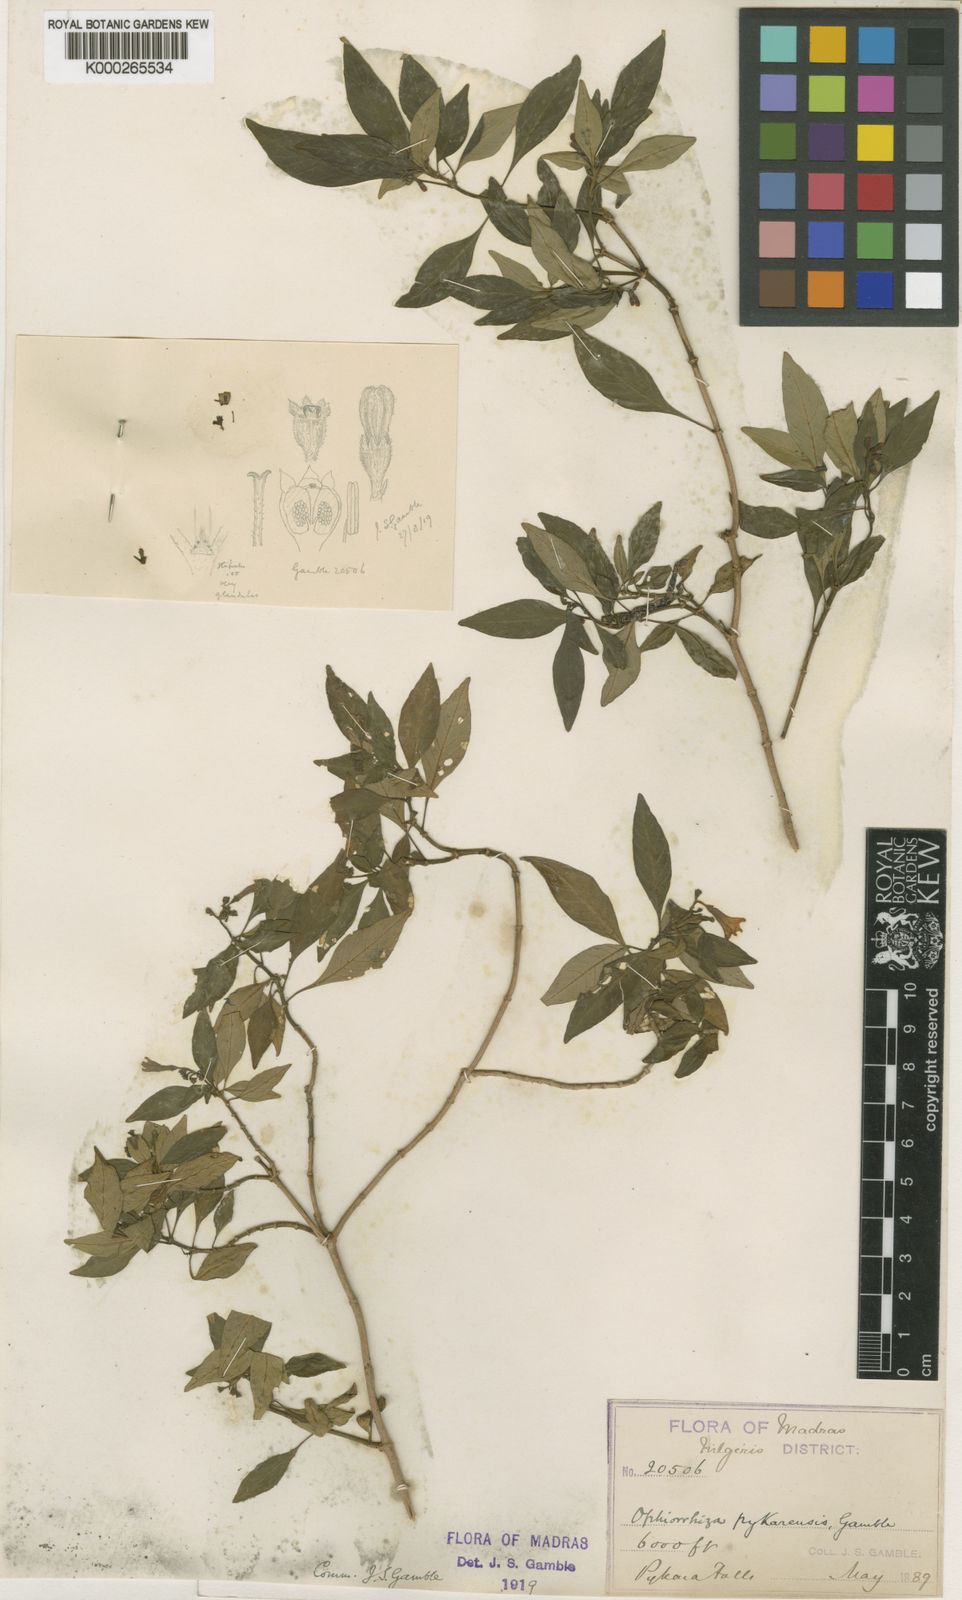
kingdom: Plantae
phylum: Tracheophyta
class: Magnoliopsida
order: Gentianales
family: Rubiaceae
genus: Ophiorrhiza
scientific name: Ophiorrhiza pykarensis
